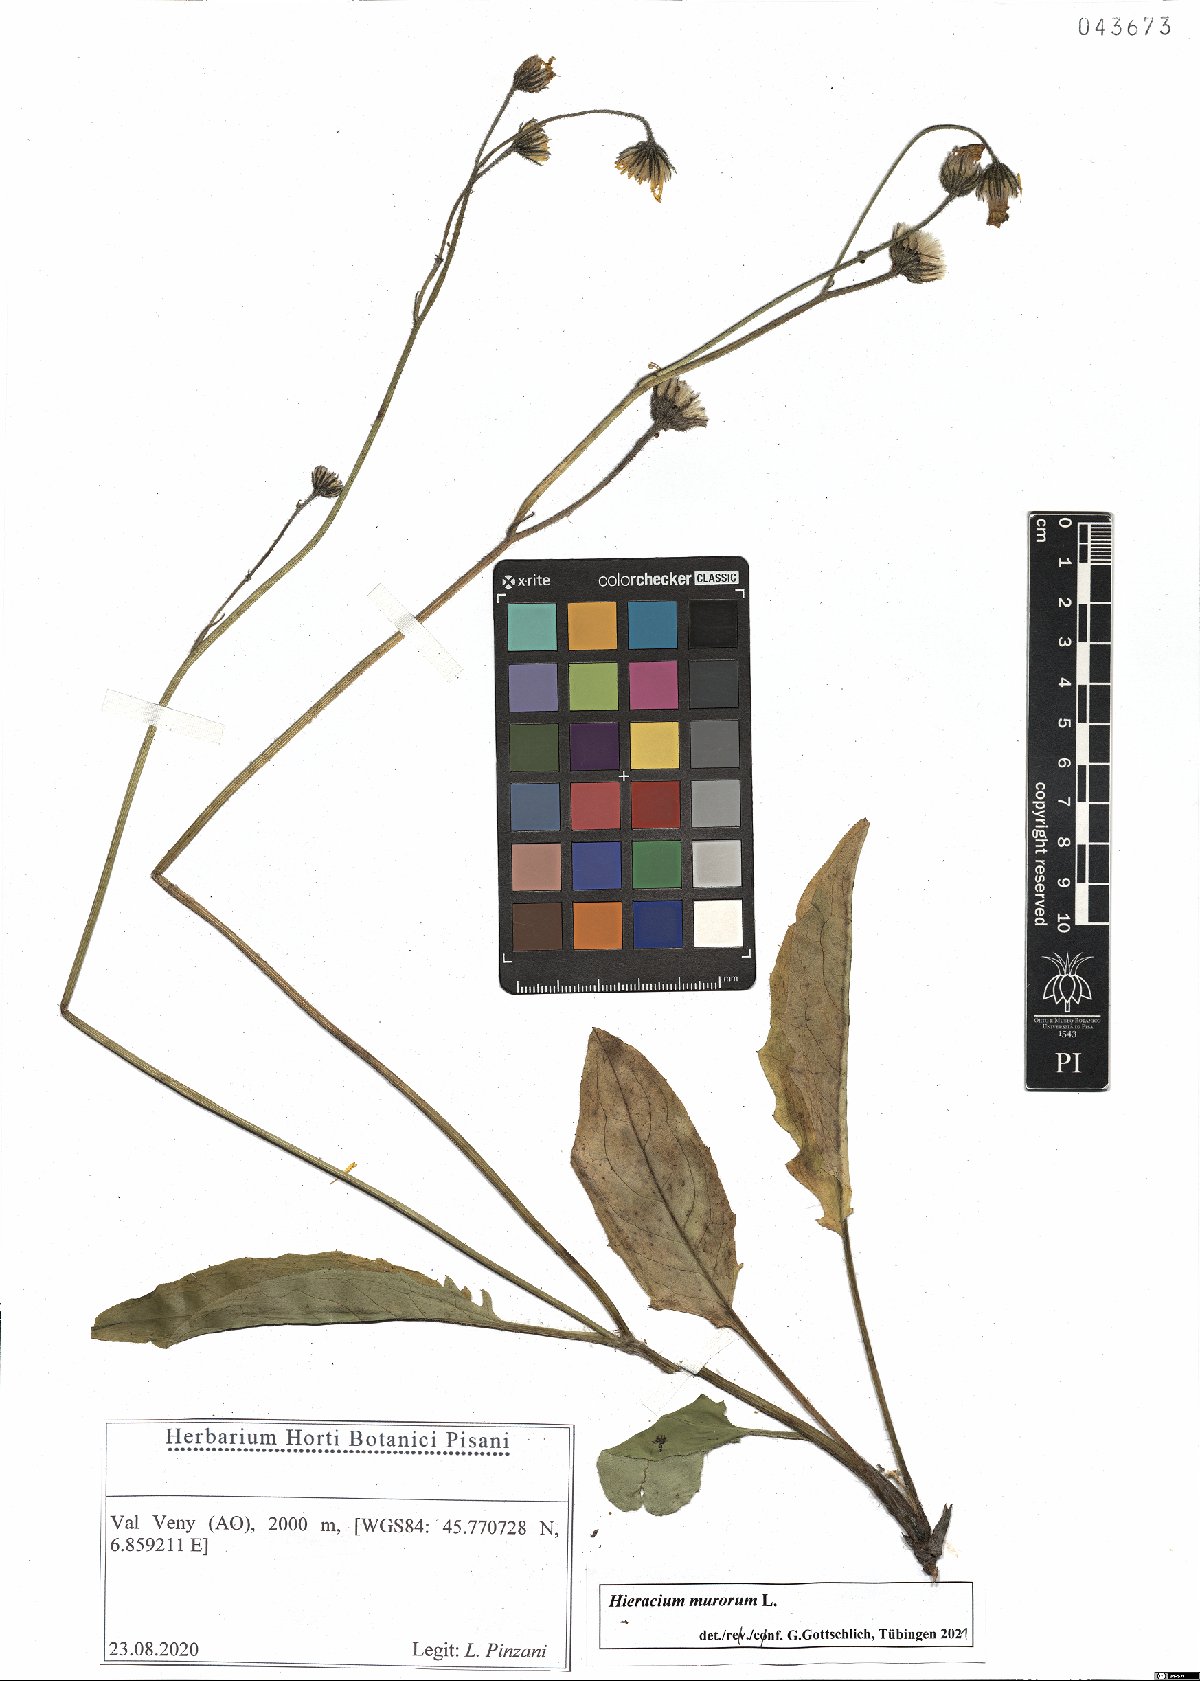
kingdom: Plantae
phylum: Tracheophyta
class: Magnoliopsida
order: Asterales
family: Asteraceae
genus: Hieracium
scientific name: Hieracium murorum
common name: Wall hawkweed
